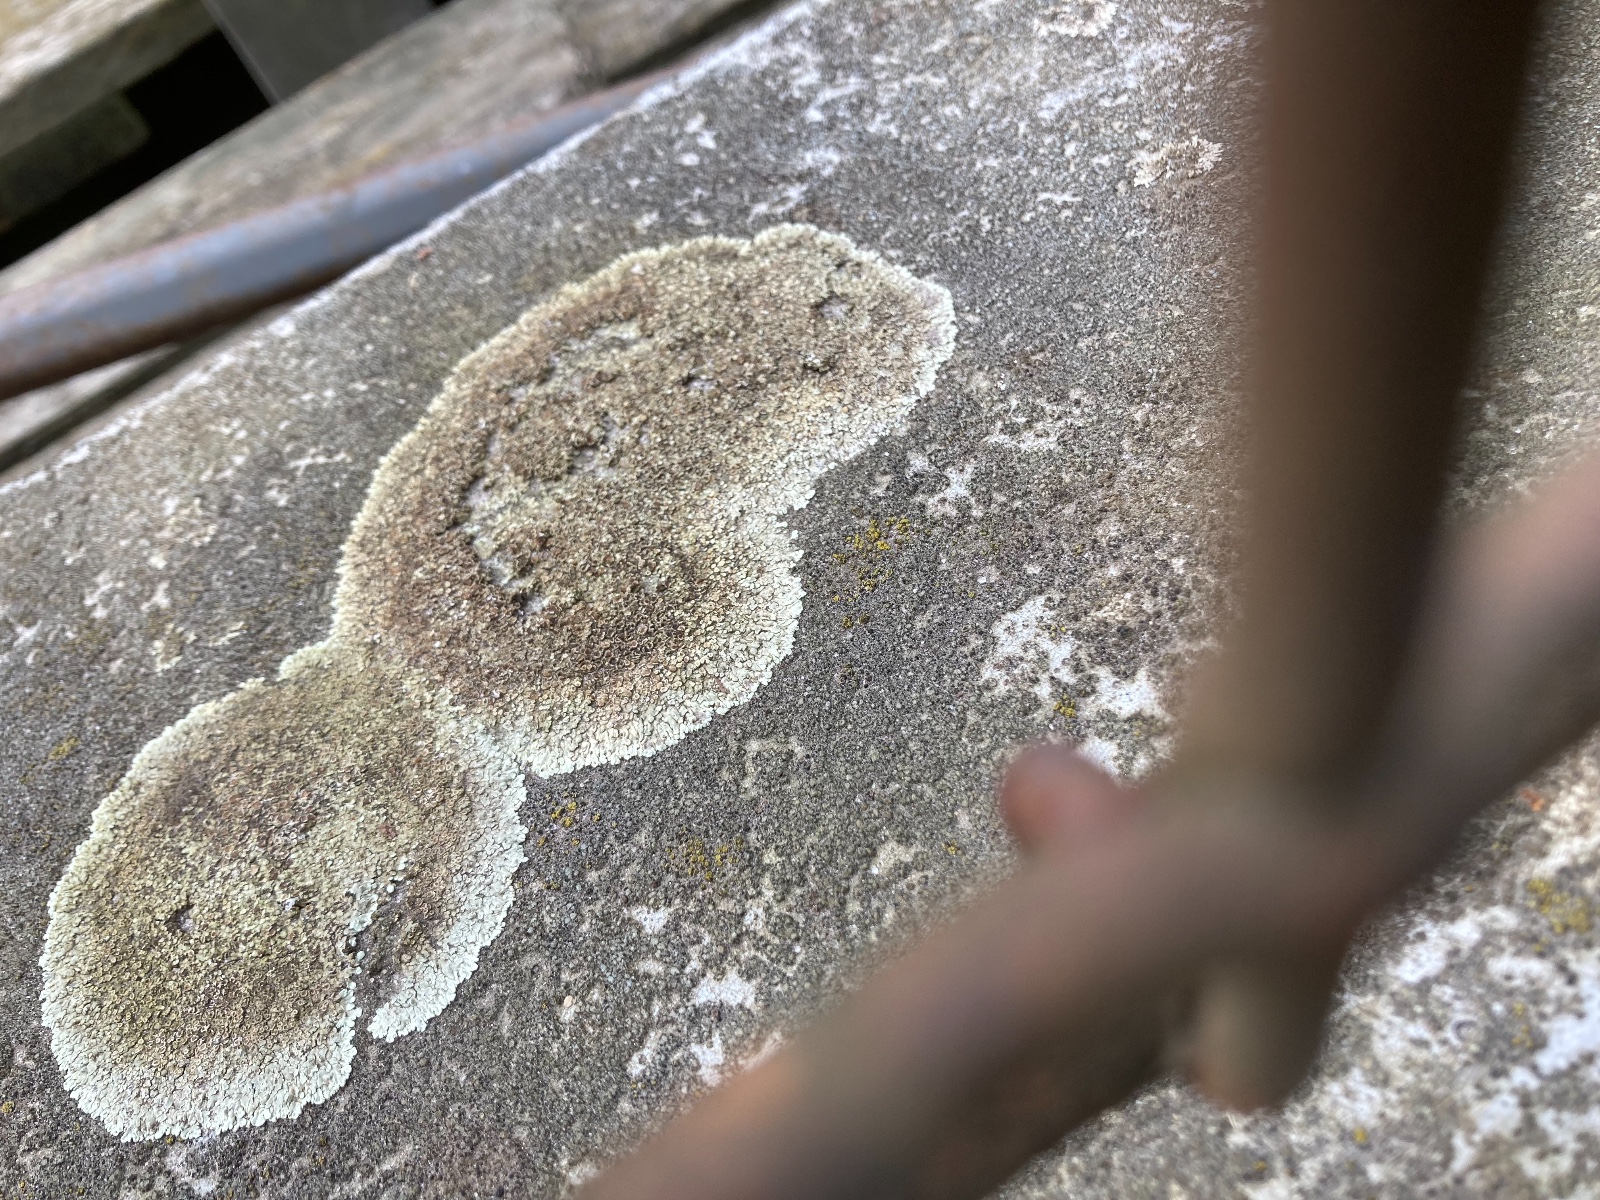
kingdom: Fungi
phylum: Ascomycota
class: Lecanoromycetes
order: Lecanorales
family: Lecanoraceae
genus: Protoparmeliopsis
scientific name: Protoparmeliopsis muralis
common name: randfliget kantskivelav
